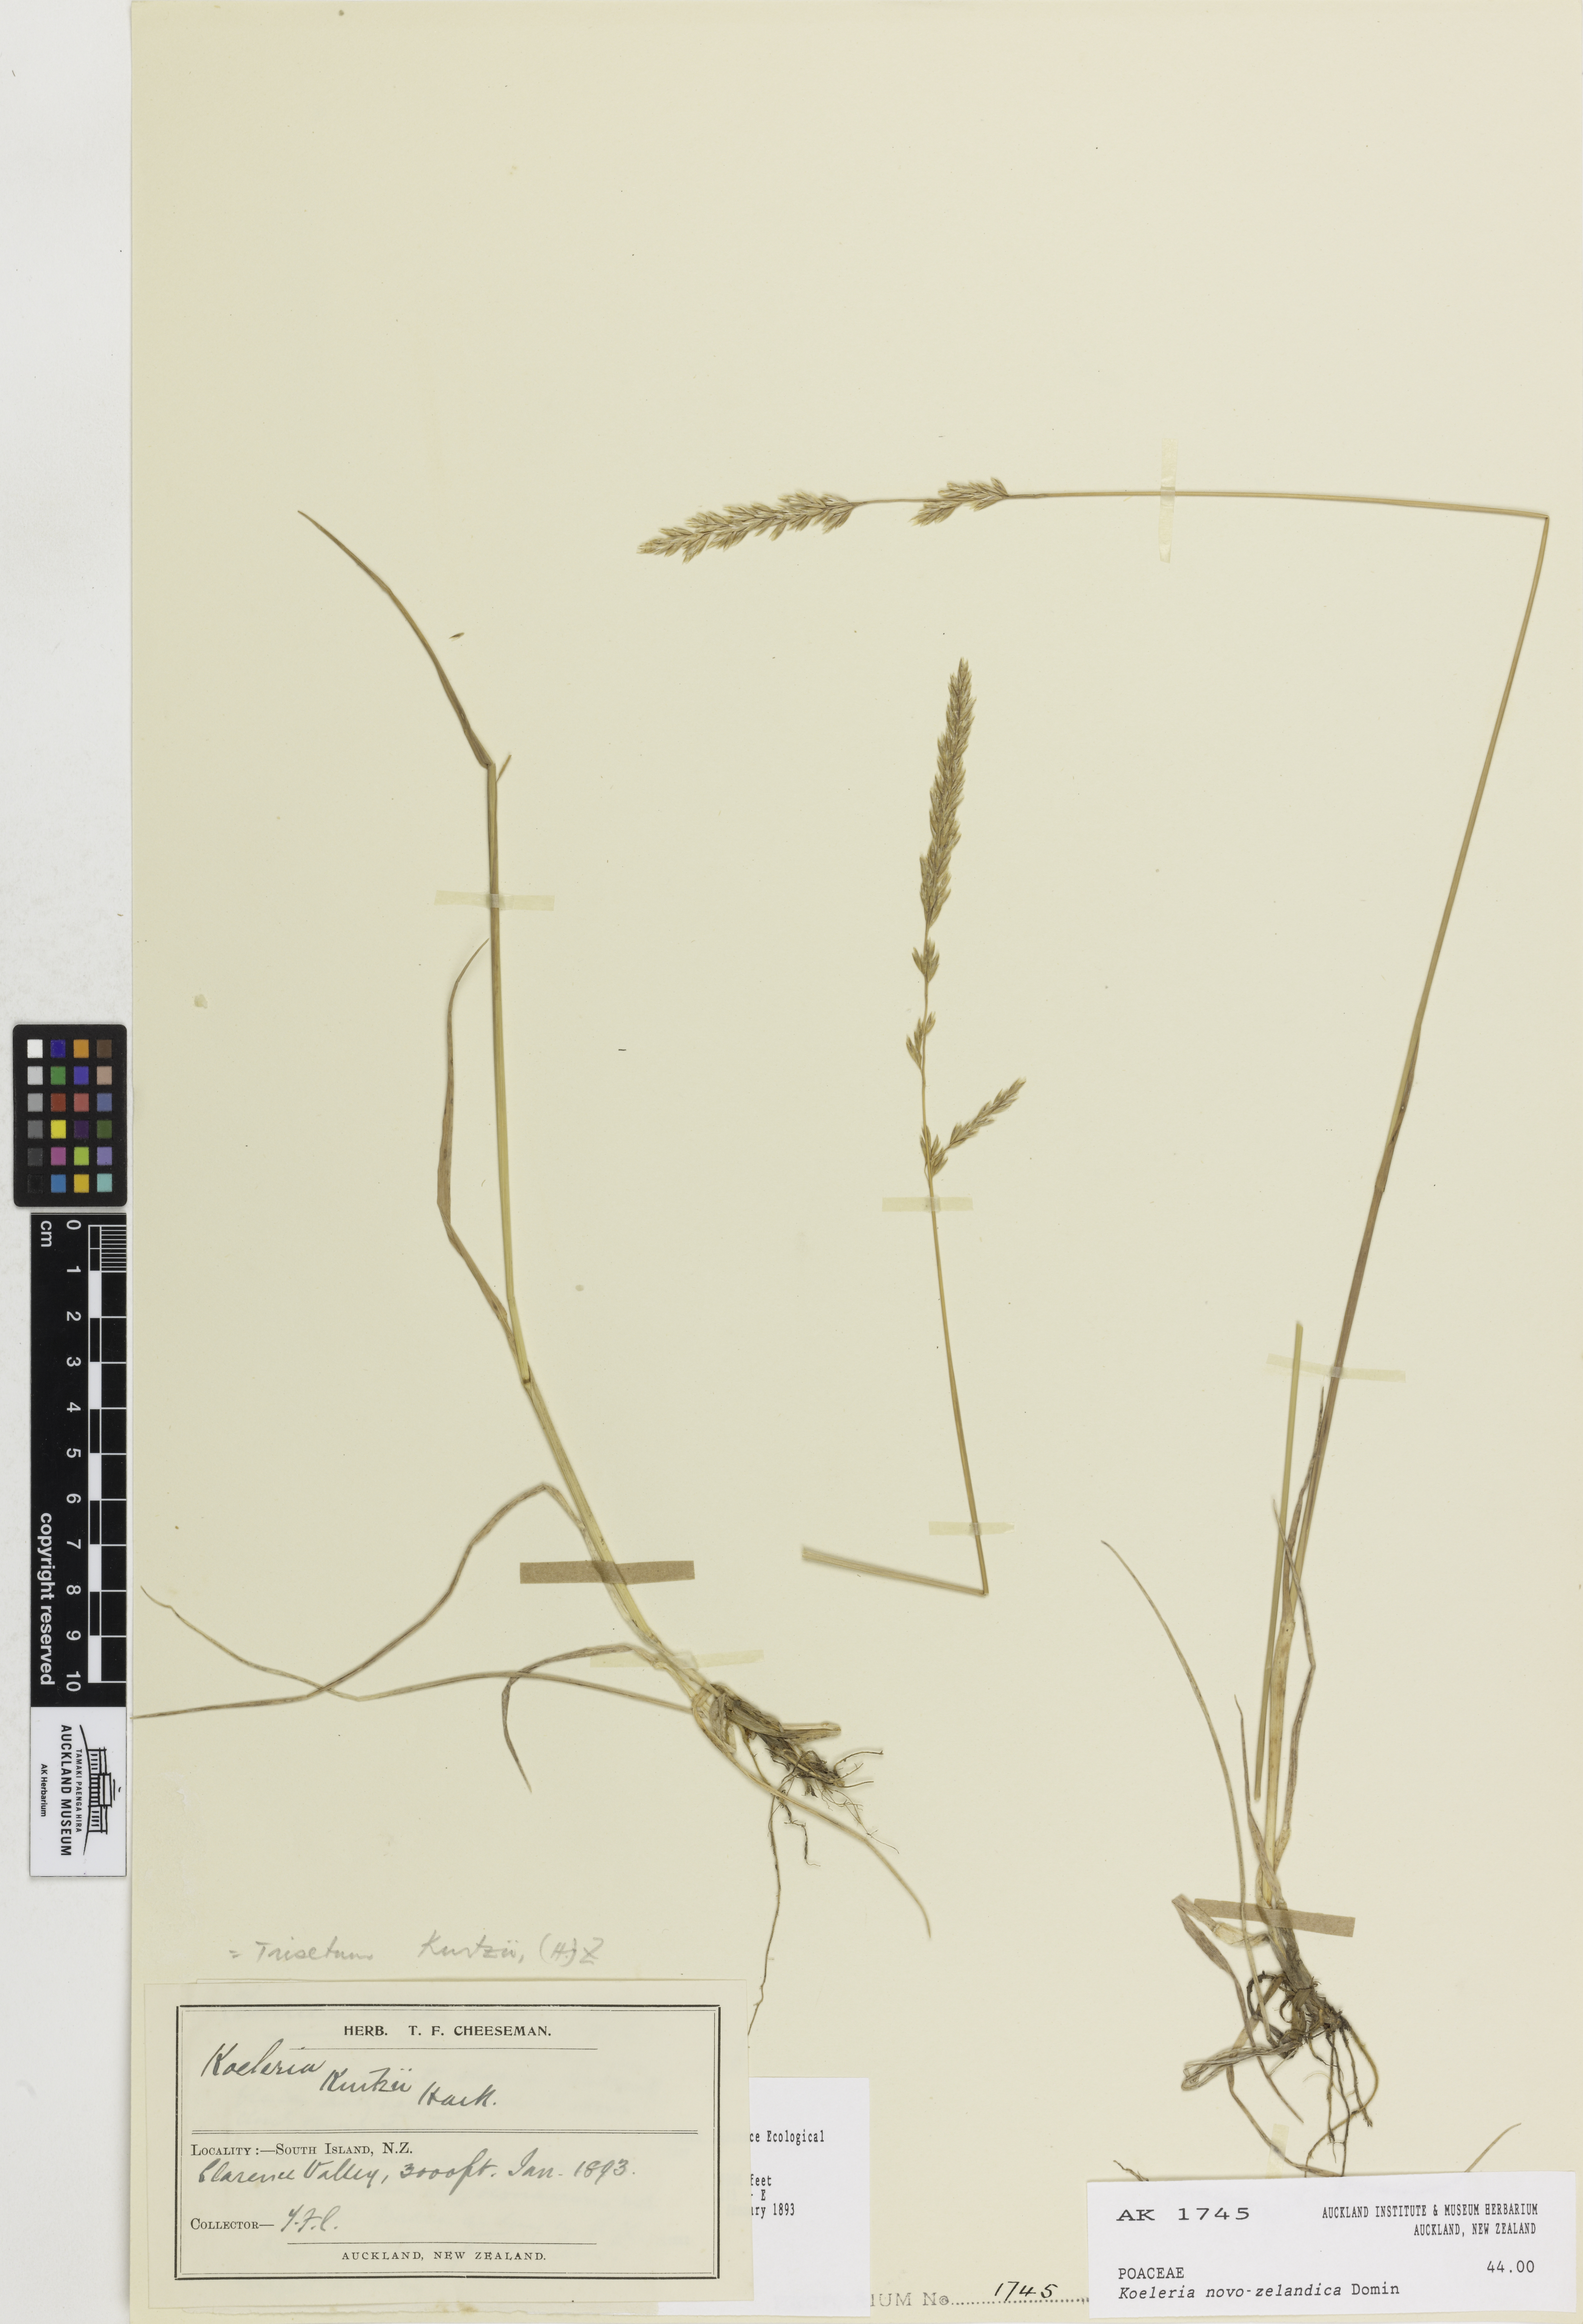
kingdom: Plantae
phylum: Tracheophyta
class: Liliopsida
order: Poales
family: Poaceae
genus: Koeleria
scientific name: Koeleria novozelandica
